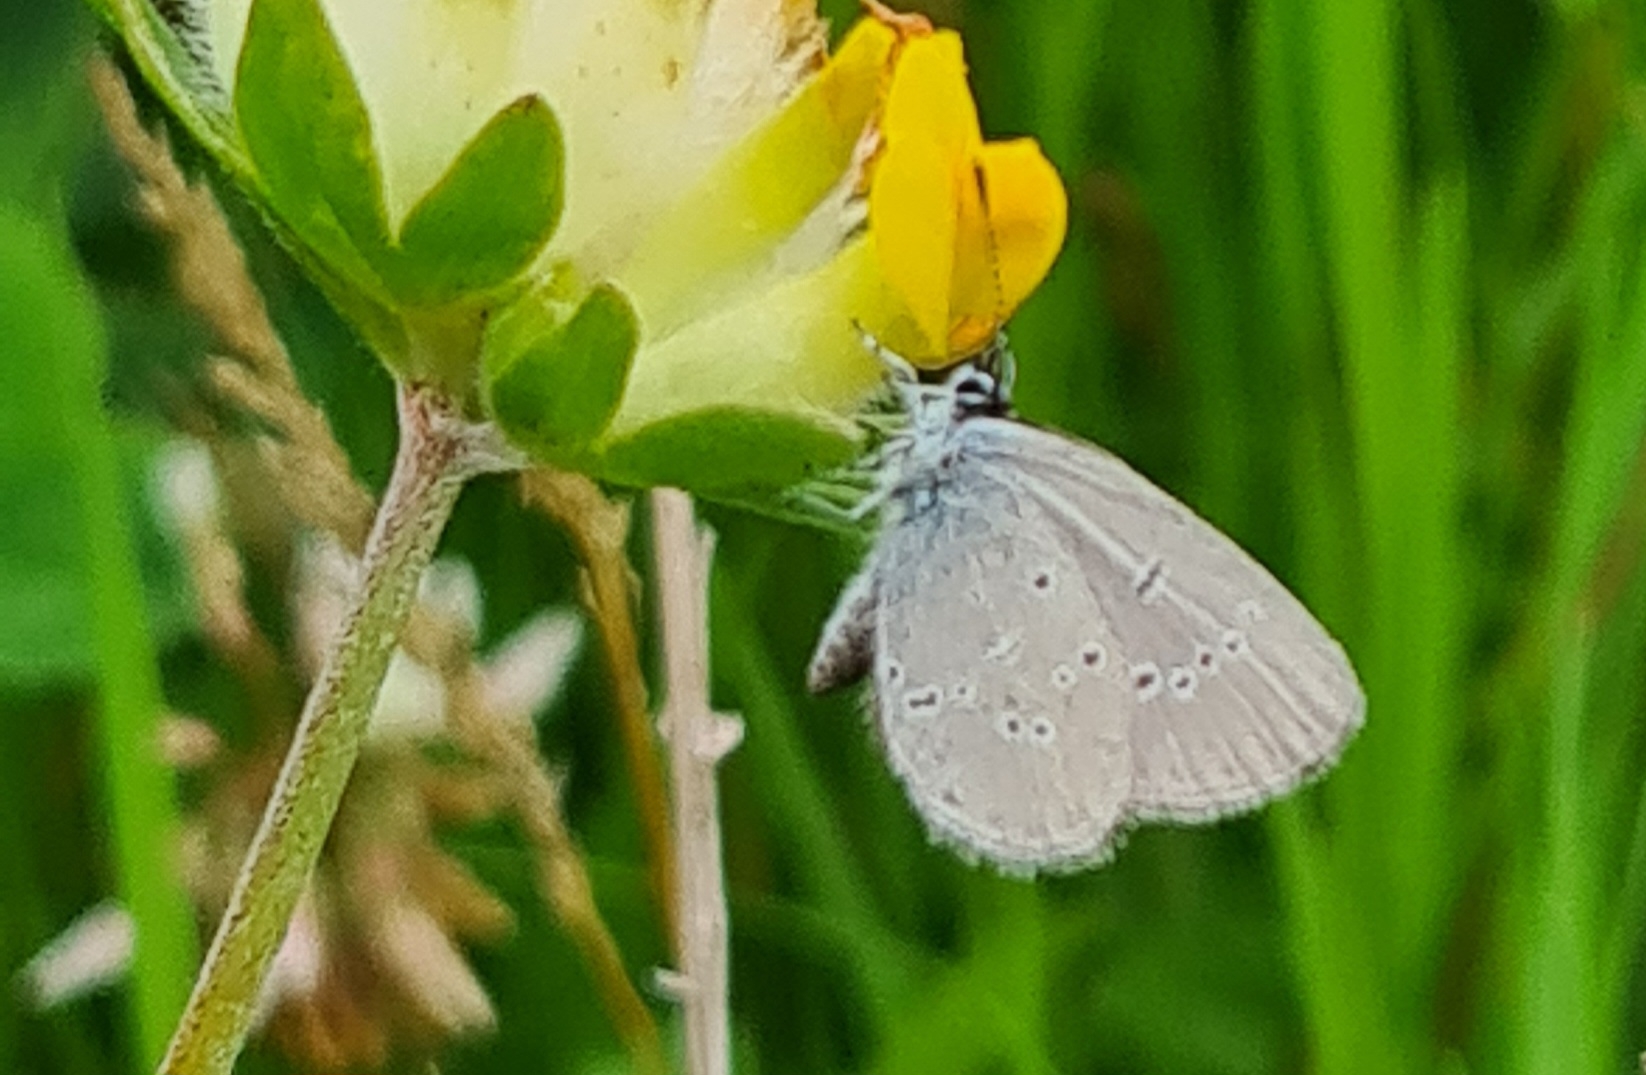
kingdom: Animalia
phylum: Arthropoda
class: Insecta
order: Lepidoptera
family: Lycaenidae
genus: Cupido
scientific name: Cupido minimus
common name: Dværgblåfugl
